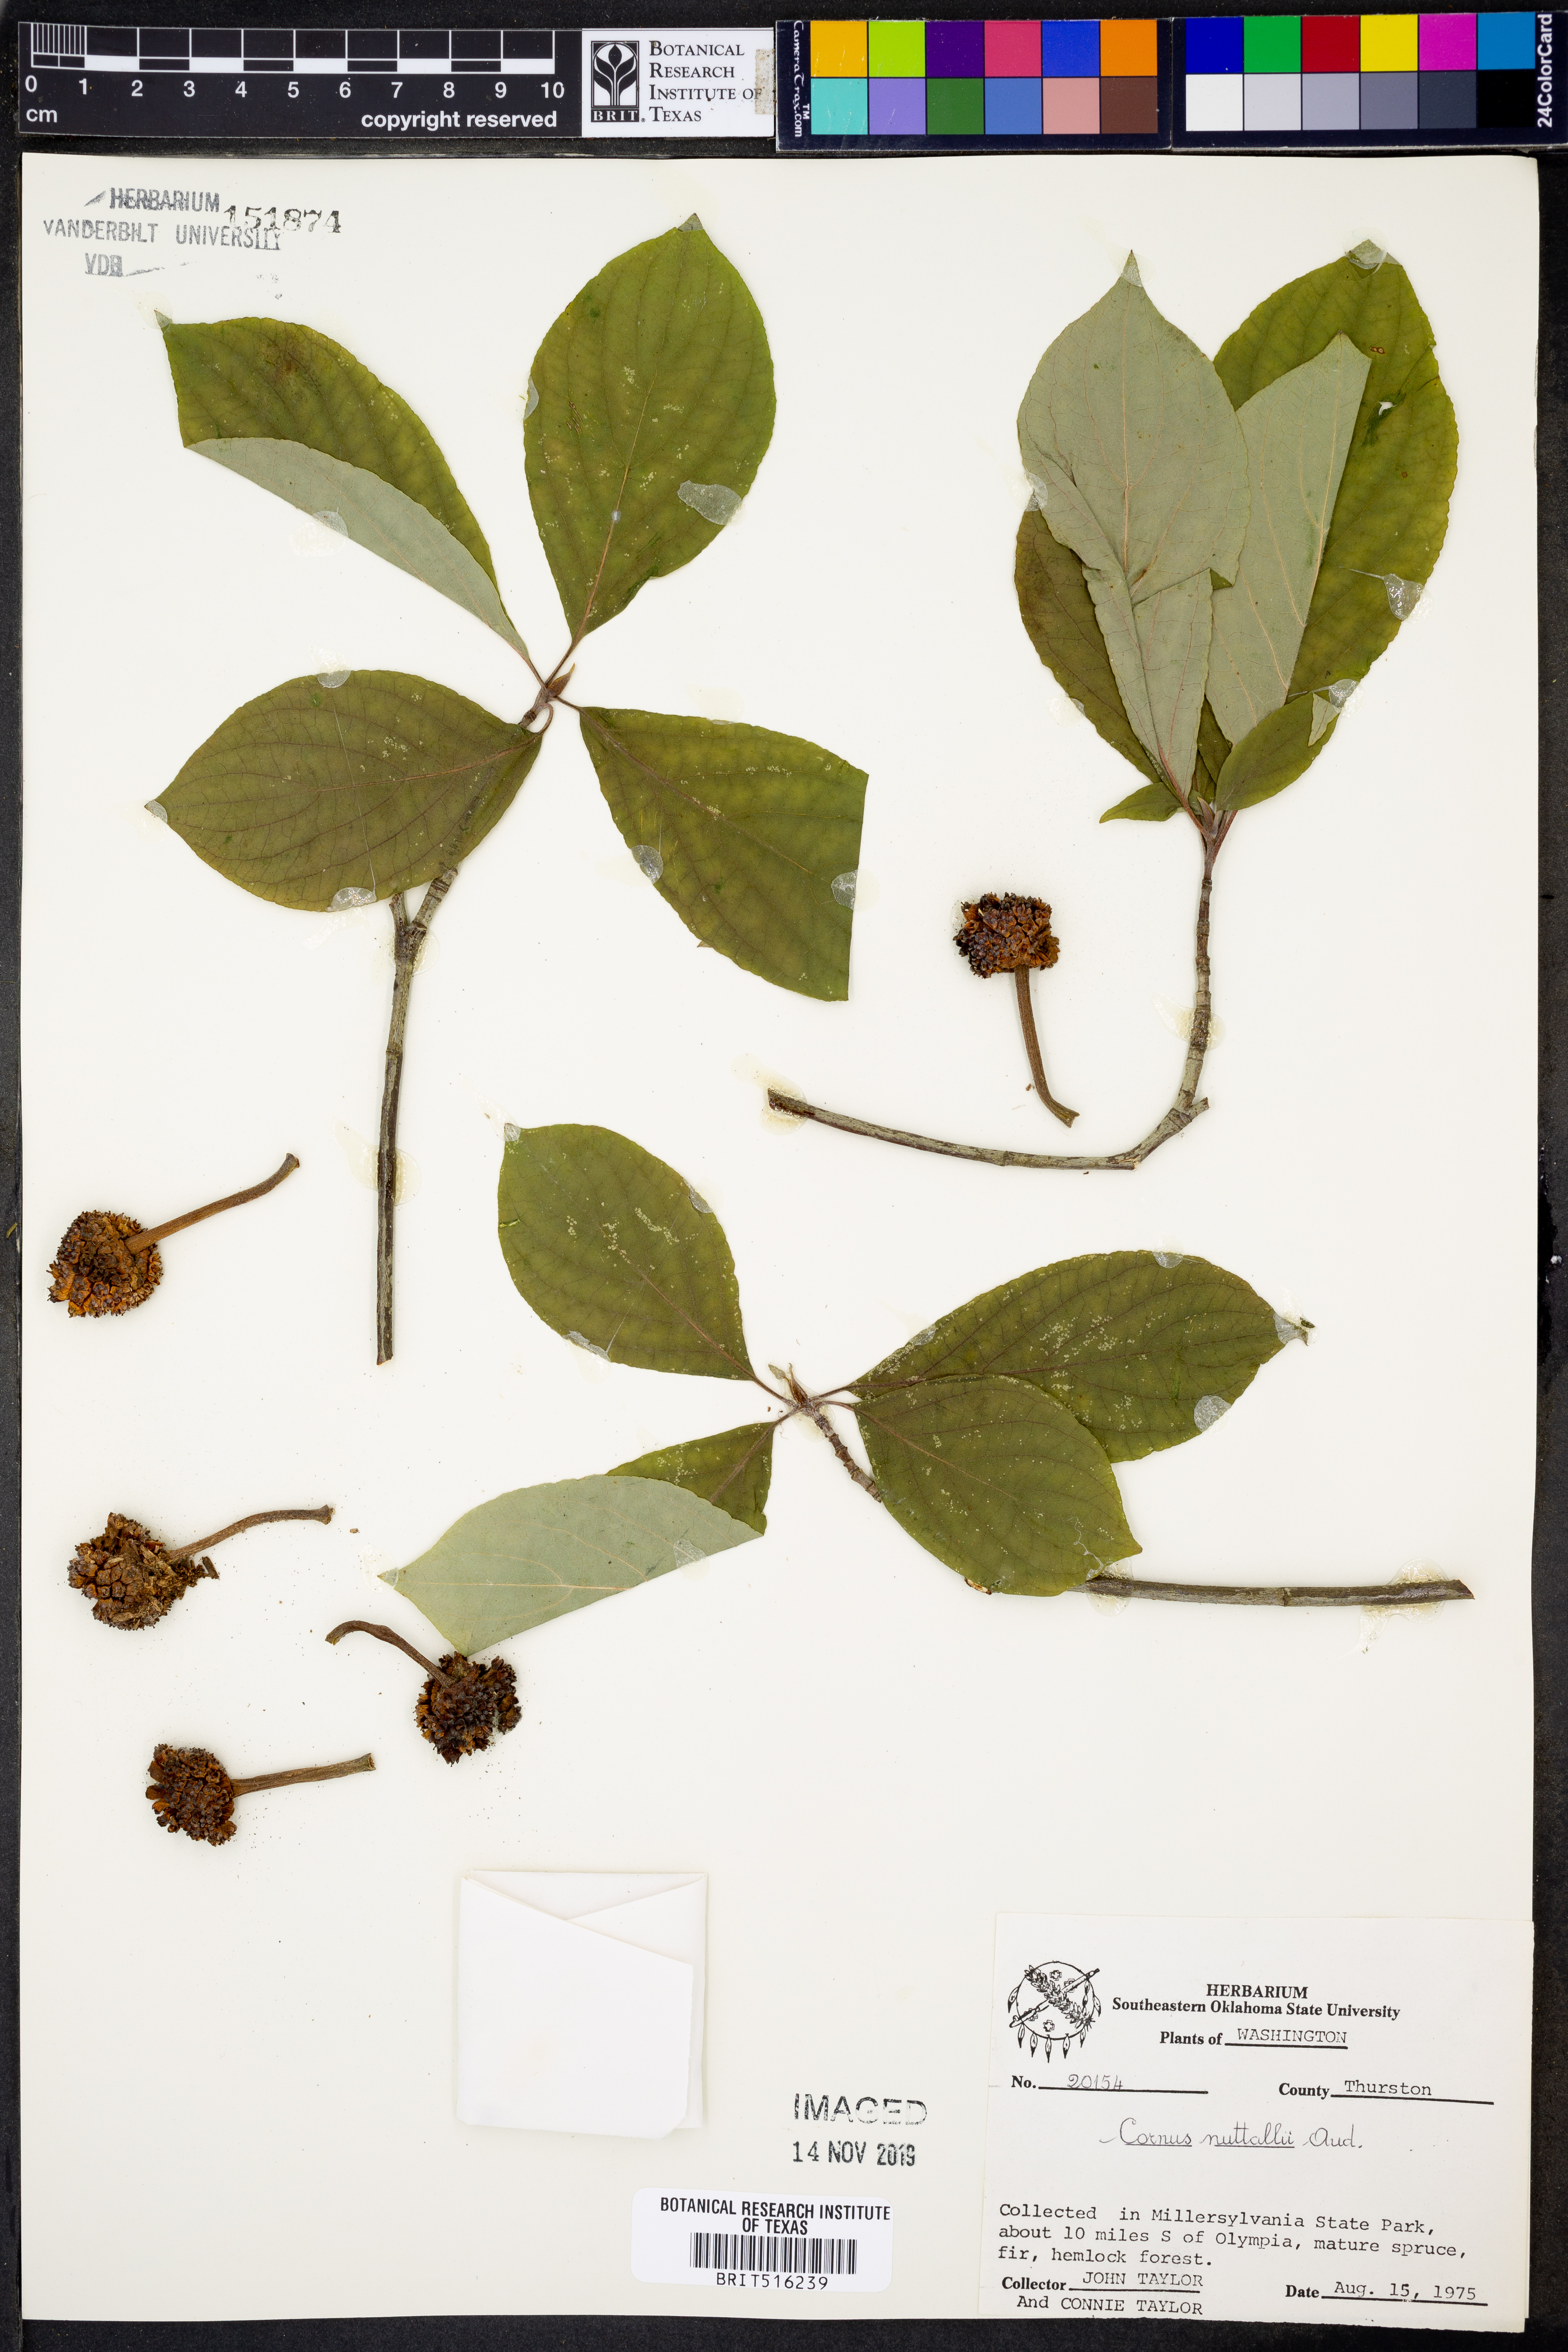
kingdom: Plantae
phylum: Tracheophyta
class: Magnoliopsida
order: Cornales
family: Cornaceae
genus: Cornus
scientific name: Cornus nuttallii
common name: Pacific dogwood
